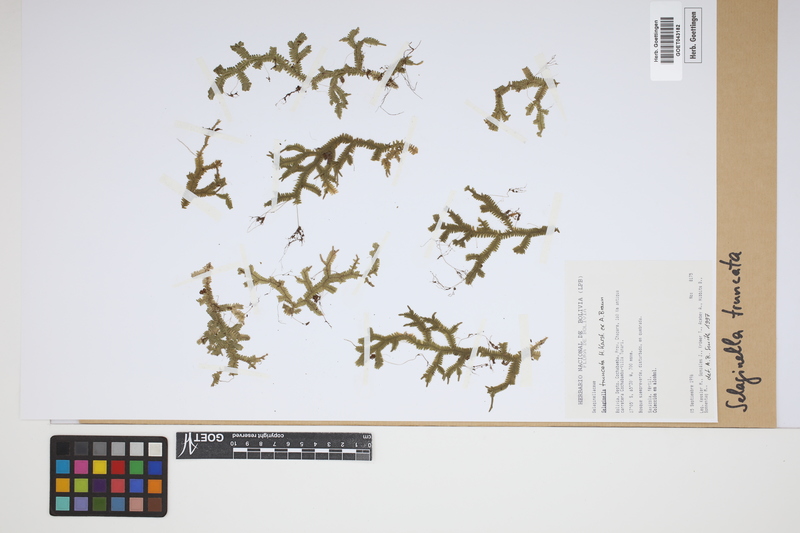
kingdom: Plantae
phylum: Tracheophyta
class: Lycopodiopsida
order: Selaginellales
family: Selaginellaceae
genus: Selaginella
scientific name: Selaginella truncata
